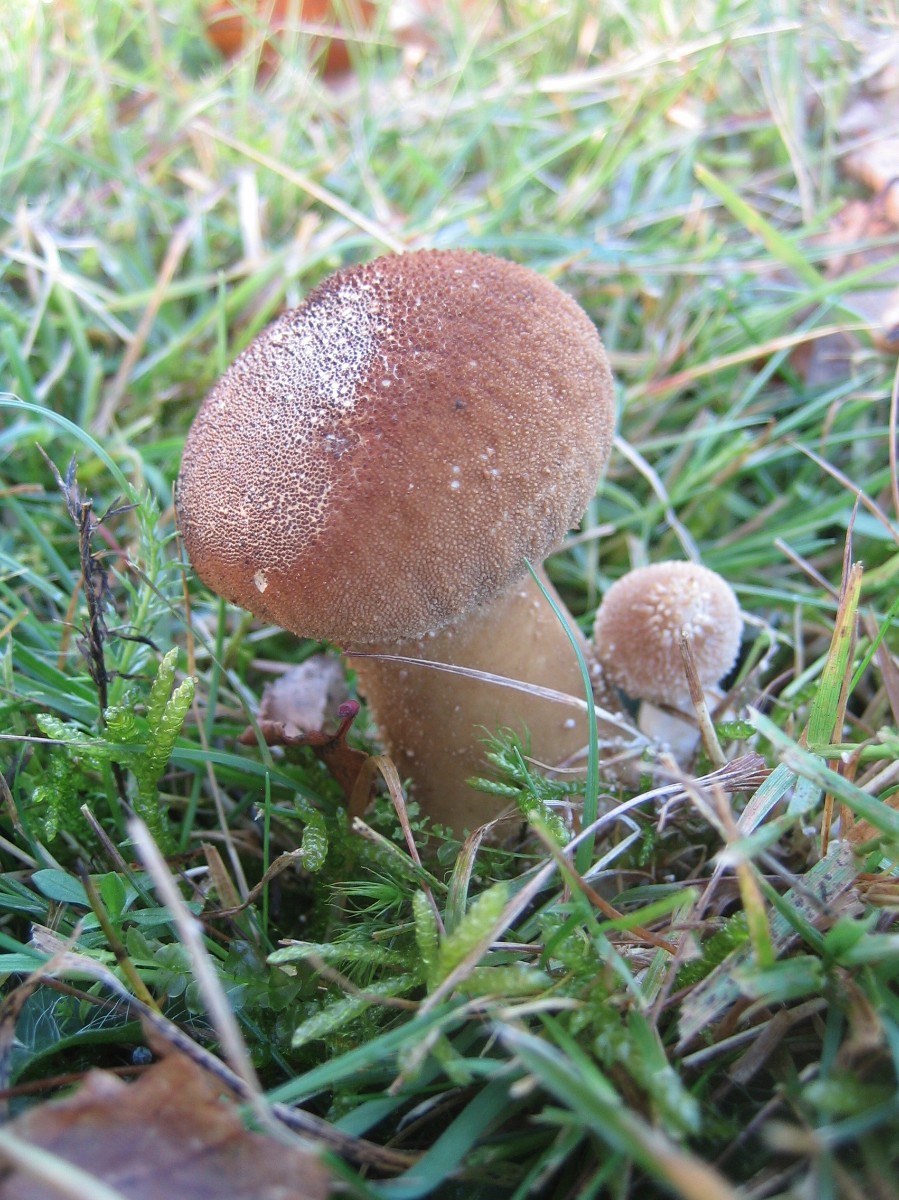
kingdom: Fungi
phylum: Basidiomycota
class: Agaricomycetes
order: Agaricales
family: Agaricaceae
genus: Lycoperdon
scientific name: Lycoperdon
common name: støvbold
